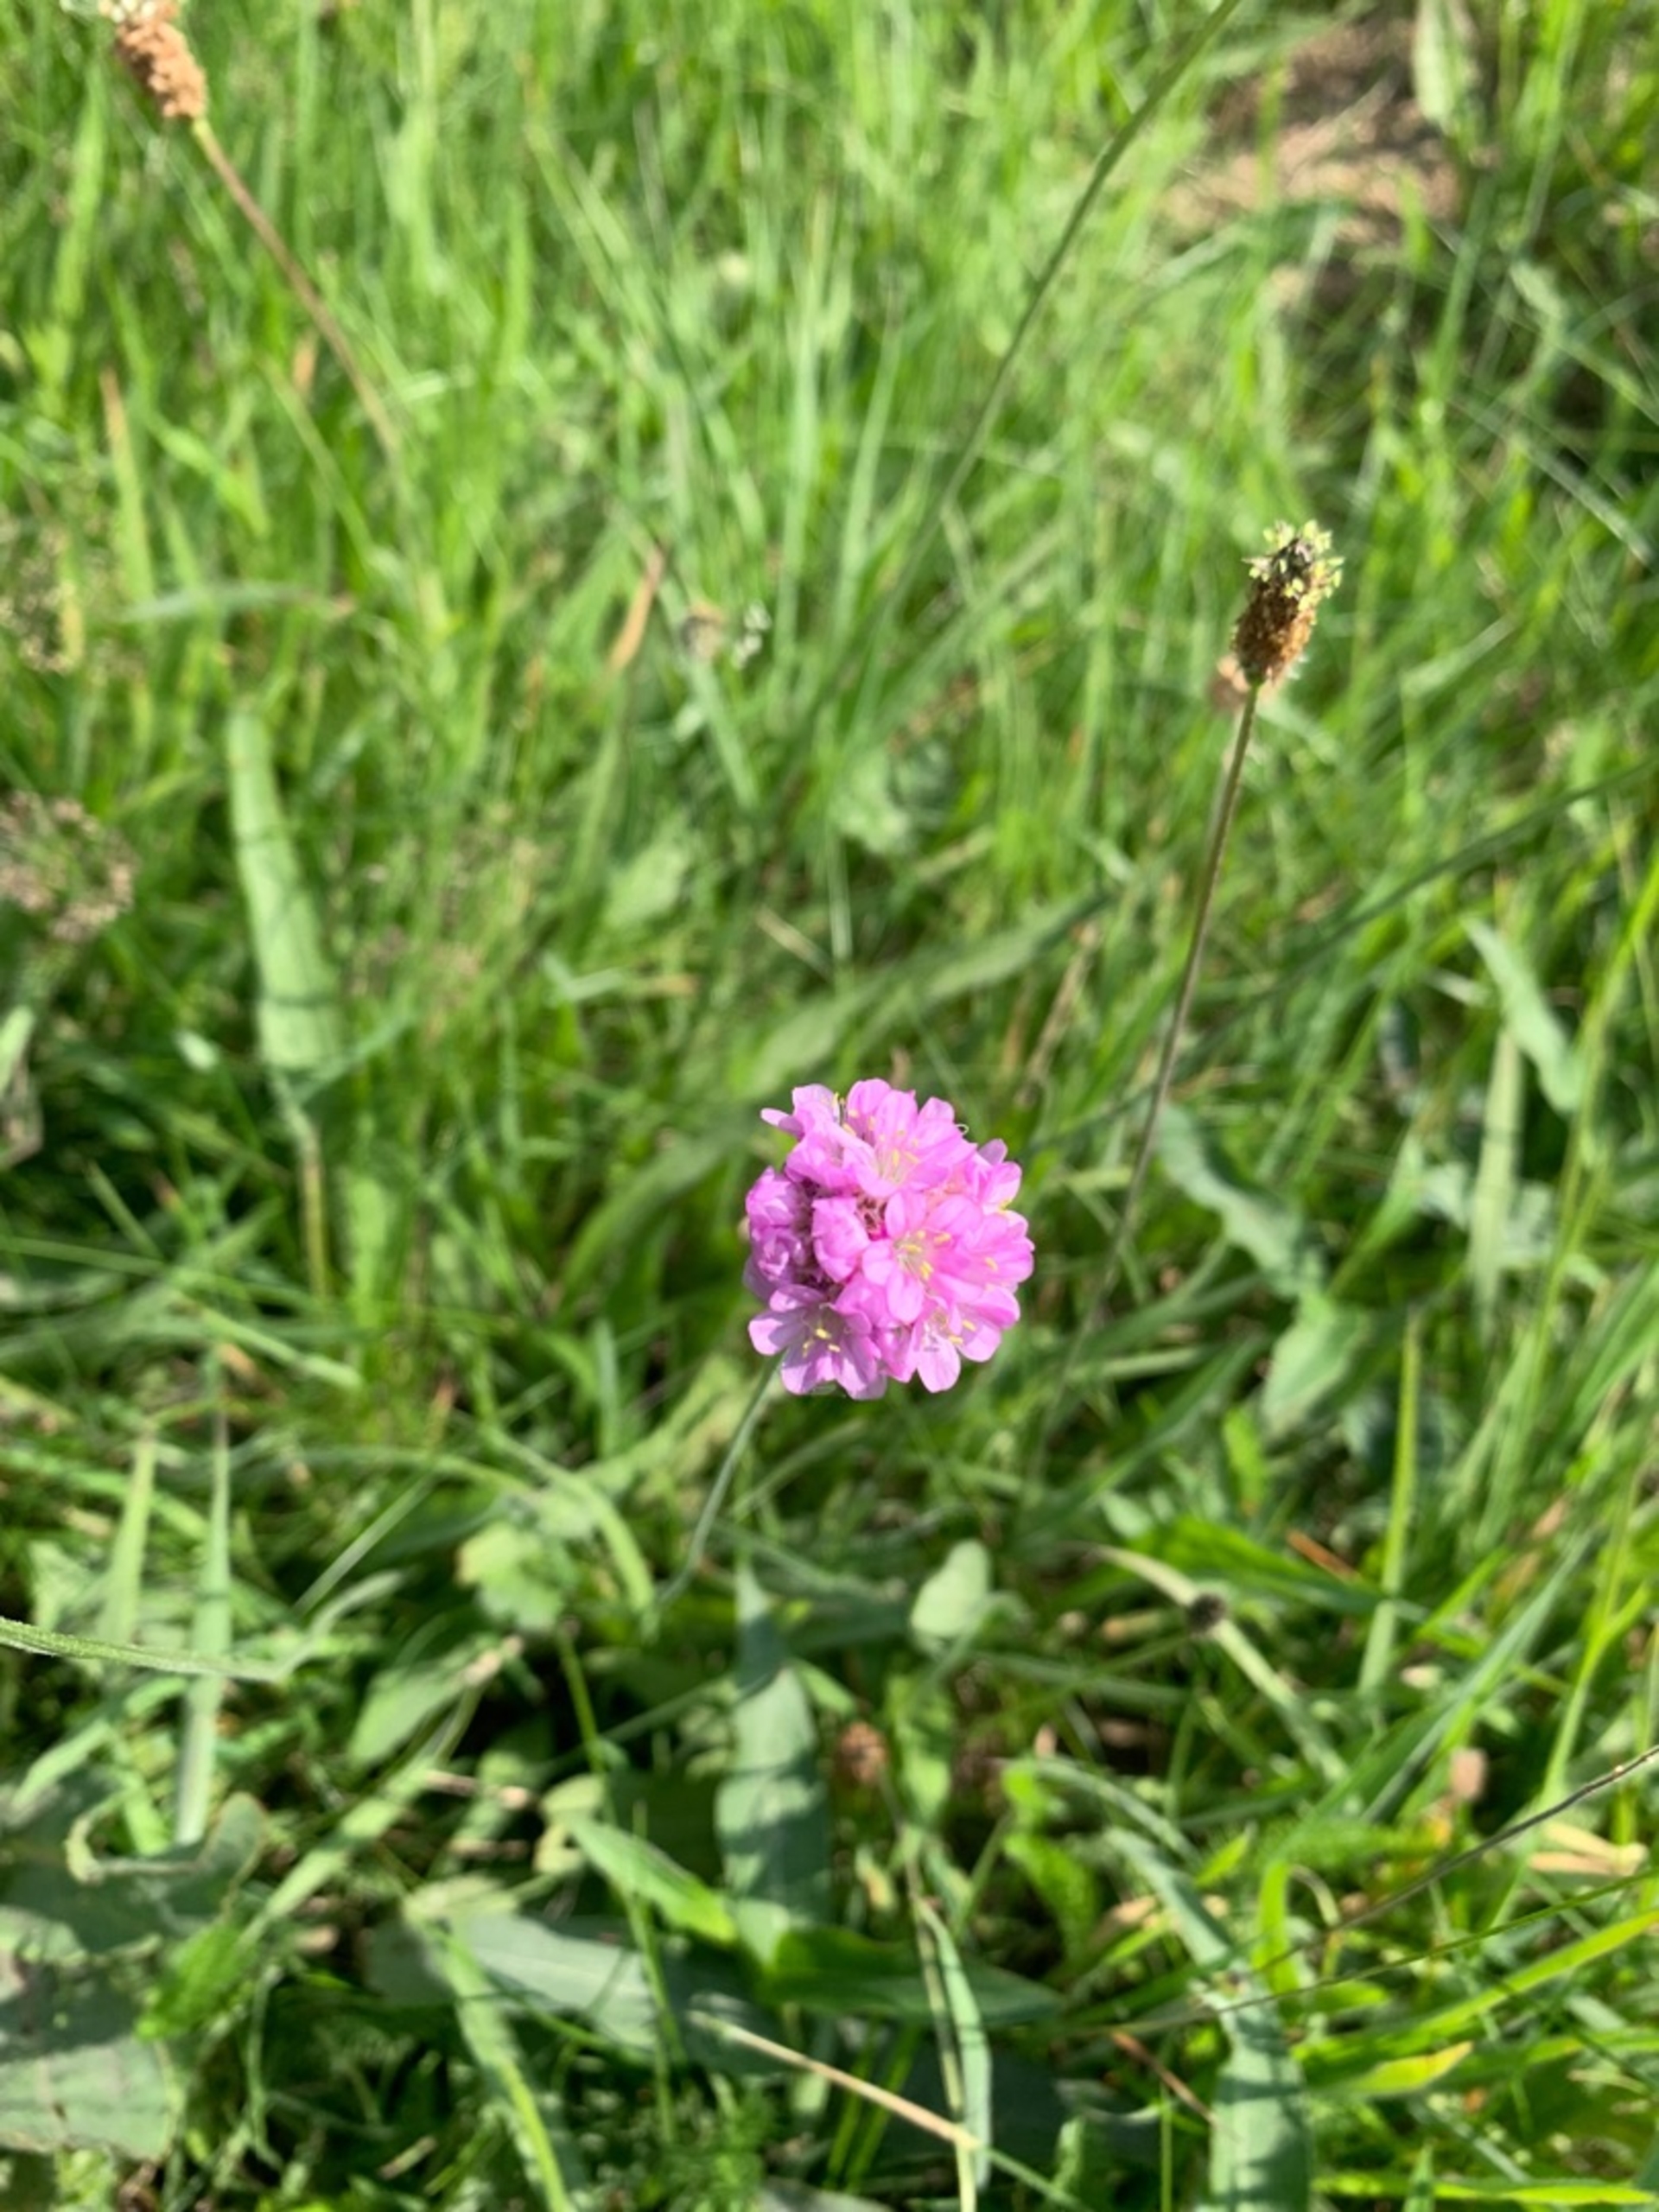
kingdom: Plantae
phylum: Tracheophyta
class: Magnoliopsida
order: Caryophyllales
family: Plumbaginaceae
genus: Armeria
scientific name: Armeria maritima
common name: Engelskgræs
